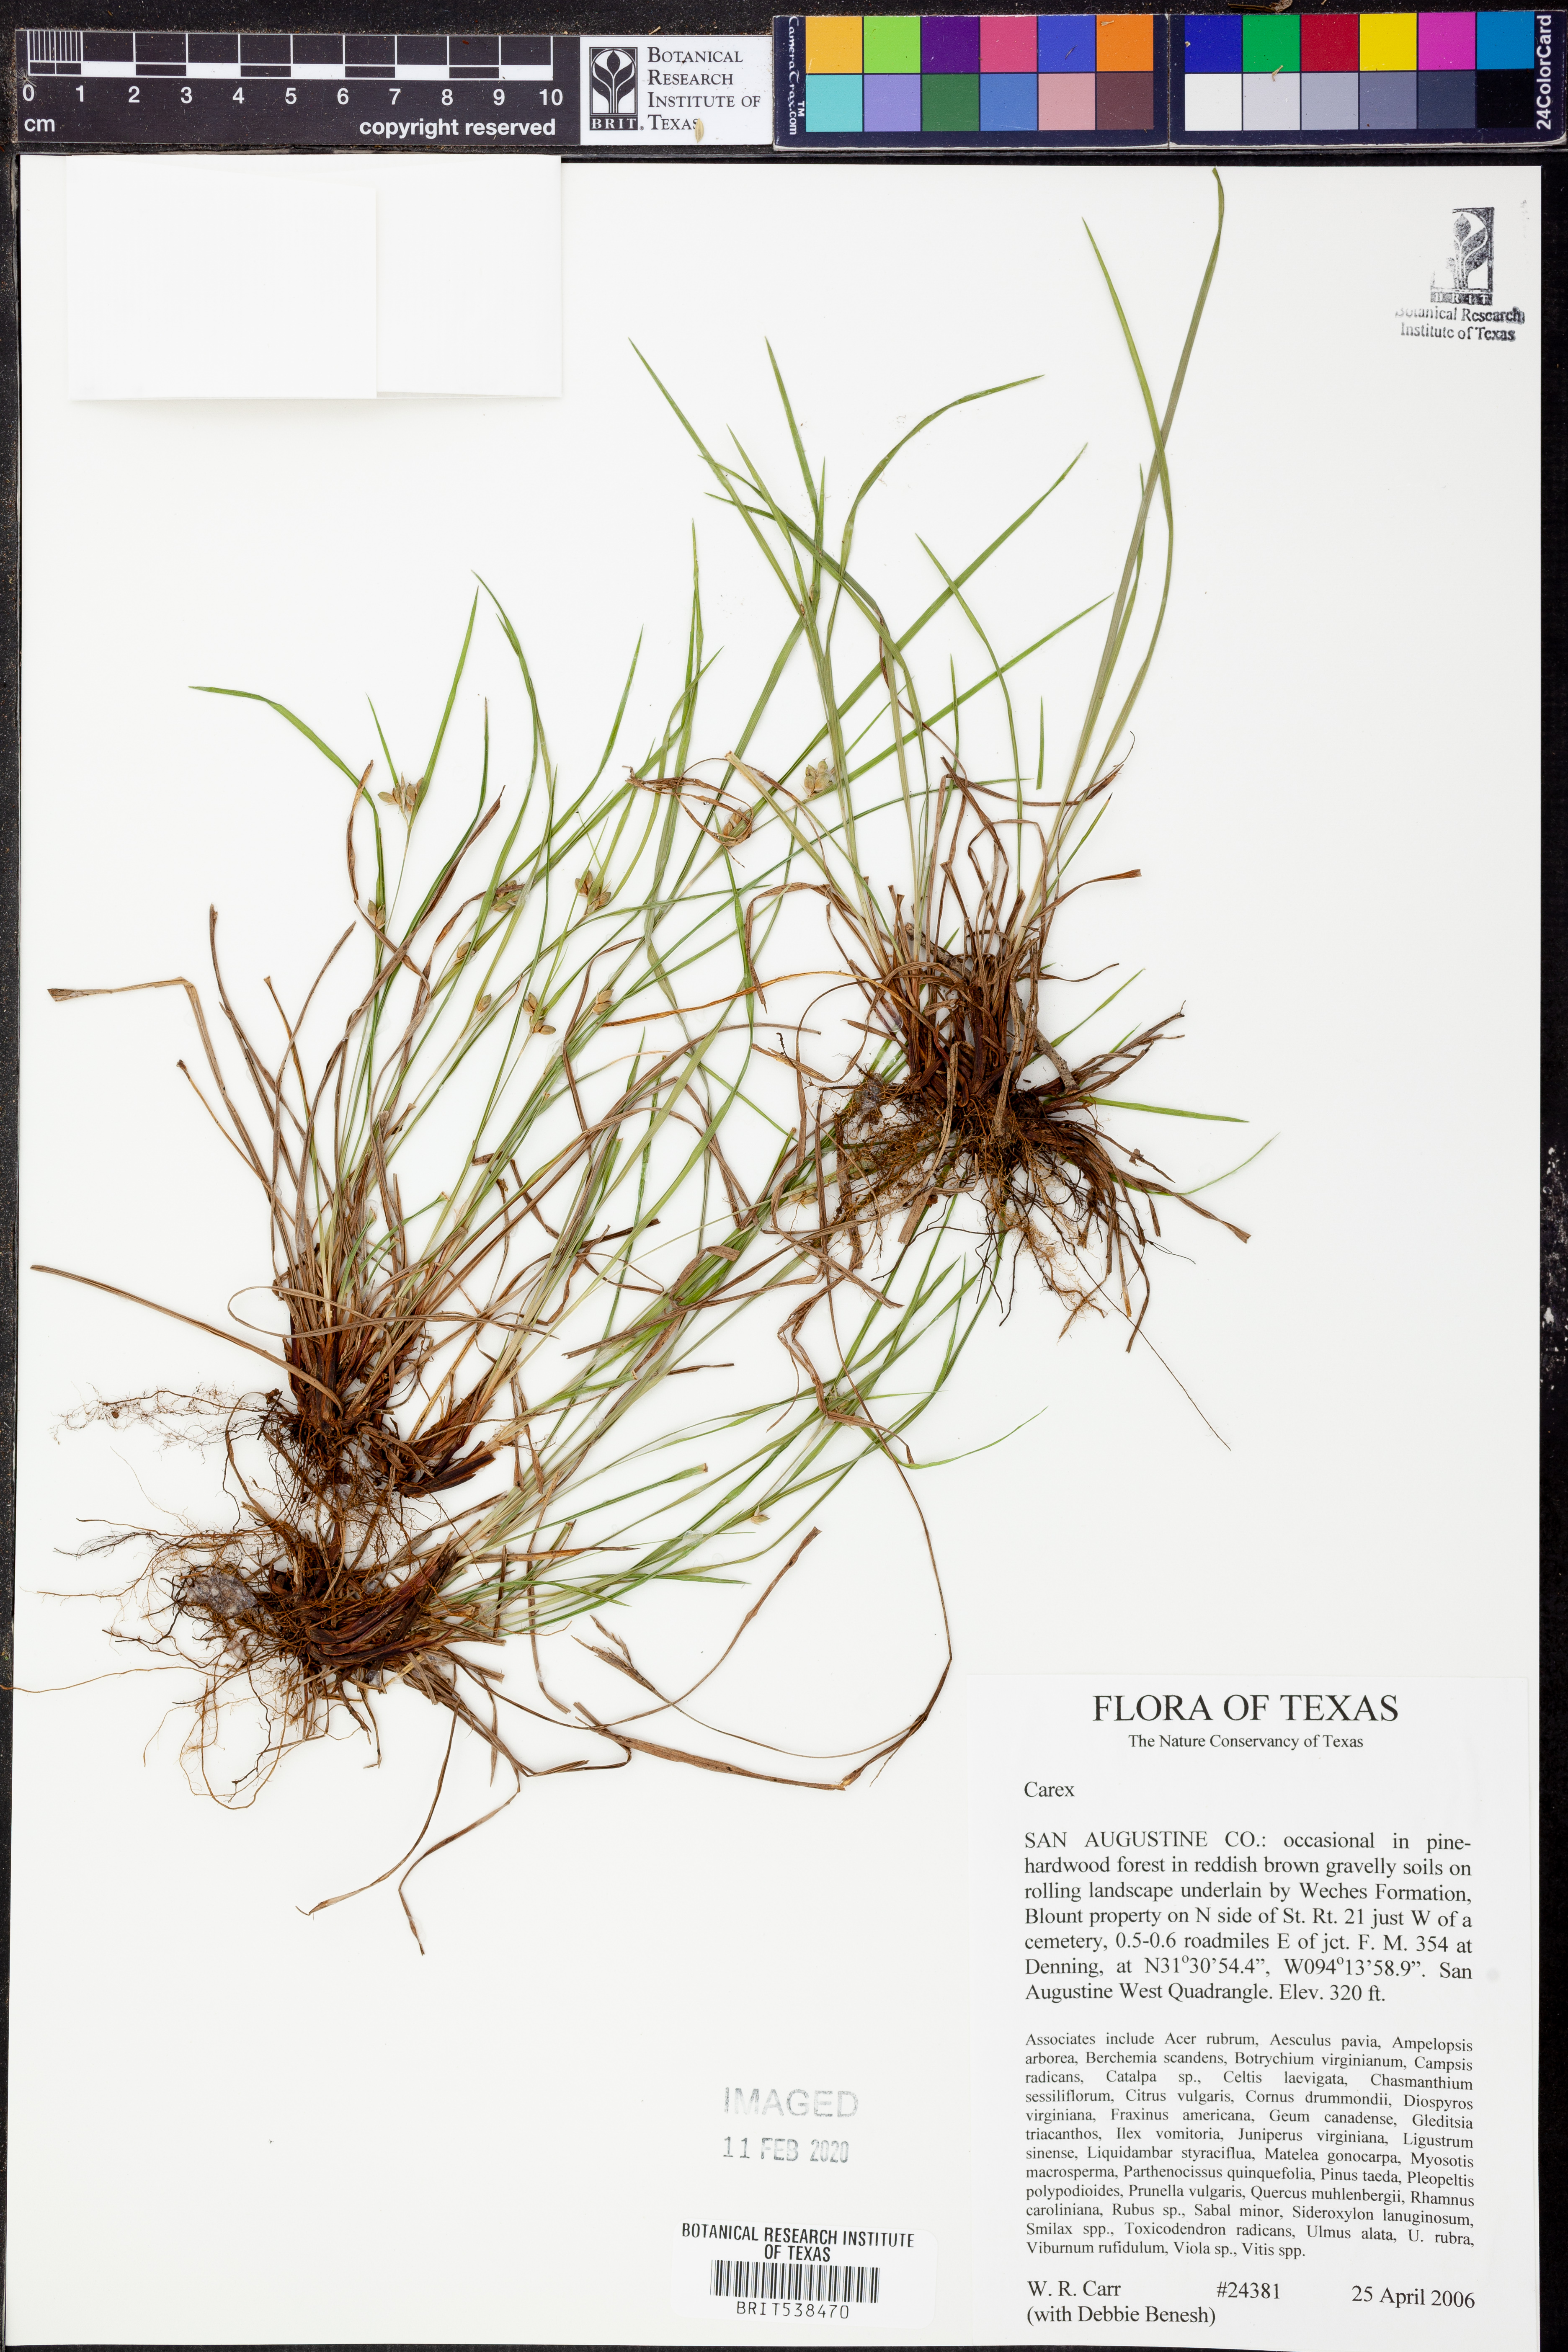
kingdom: Plantae
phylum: Tracheophyta
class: Liliopsida
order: Poales
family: Cyperaceae
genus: Carex
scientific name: Carex
